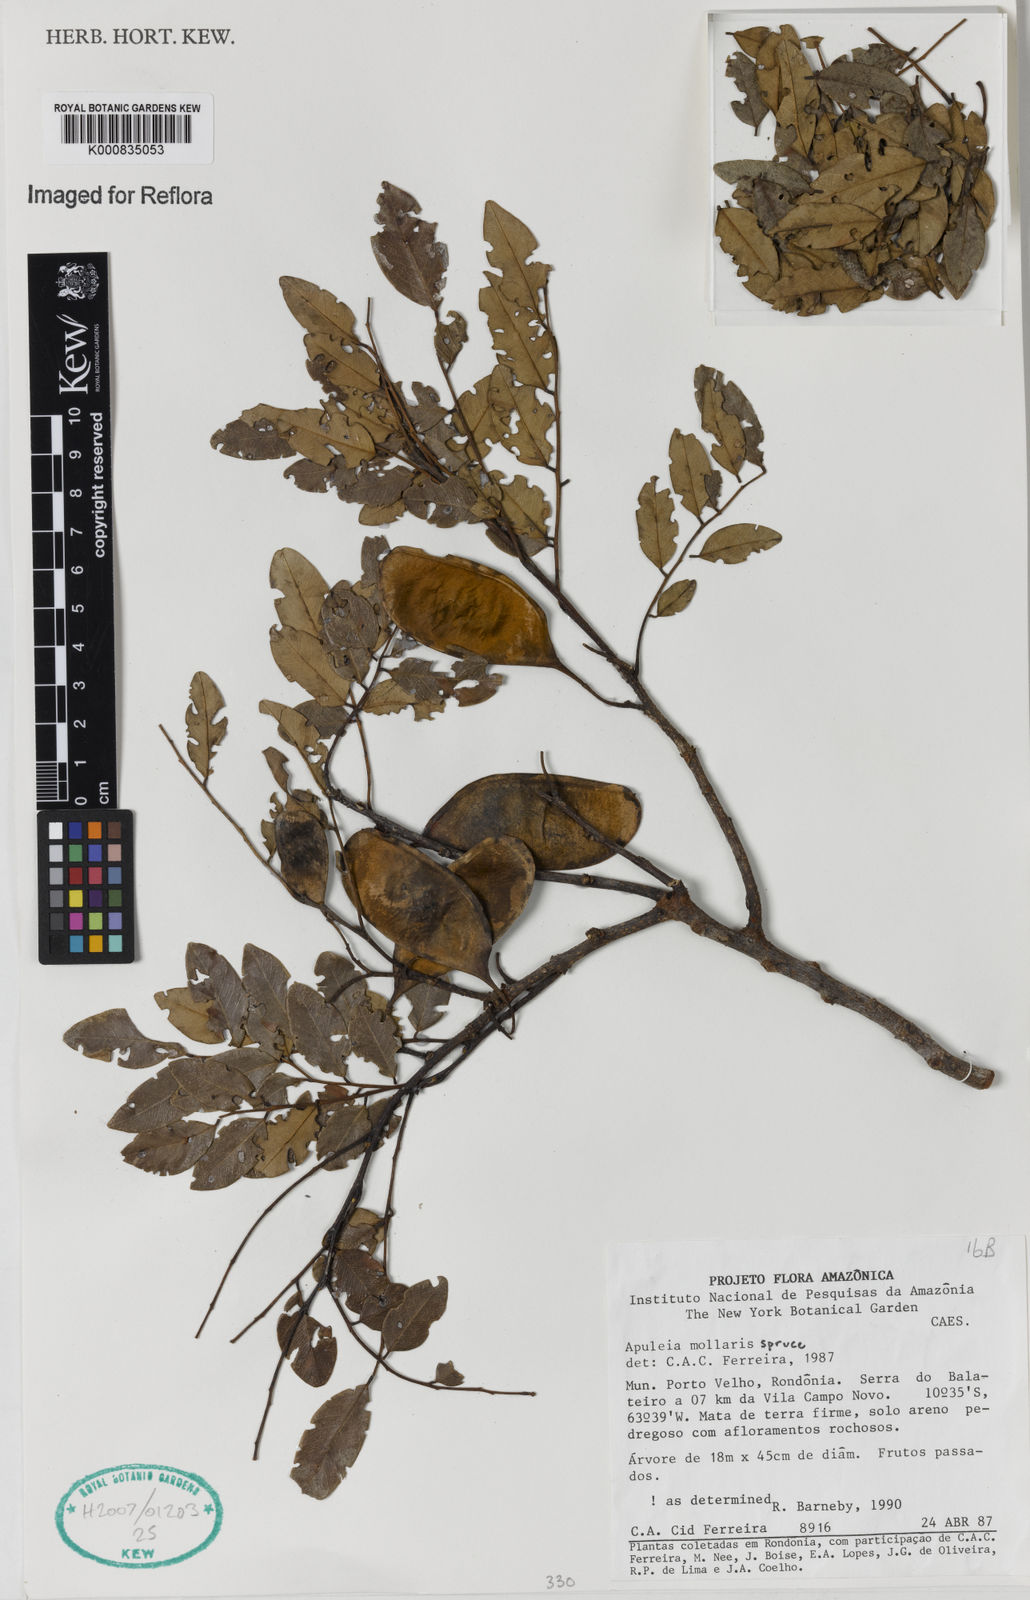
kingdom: Plantae
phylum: Tracheophyta
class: Magnoliopsida
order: Fabales
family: Fabaceae
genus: Apuleia
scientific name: Apuleia leiocarpa
